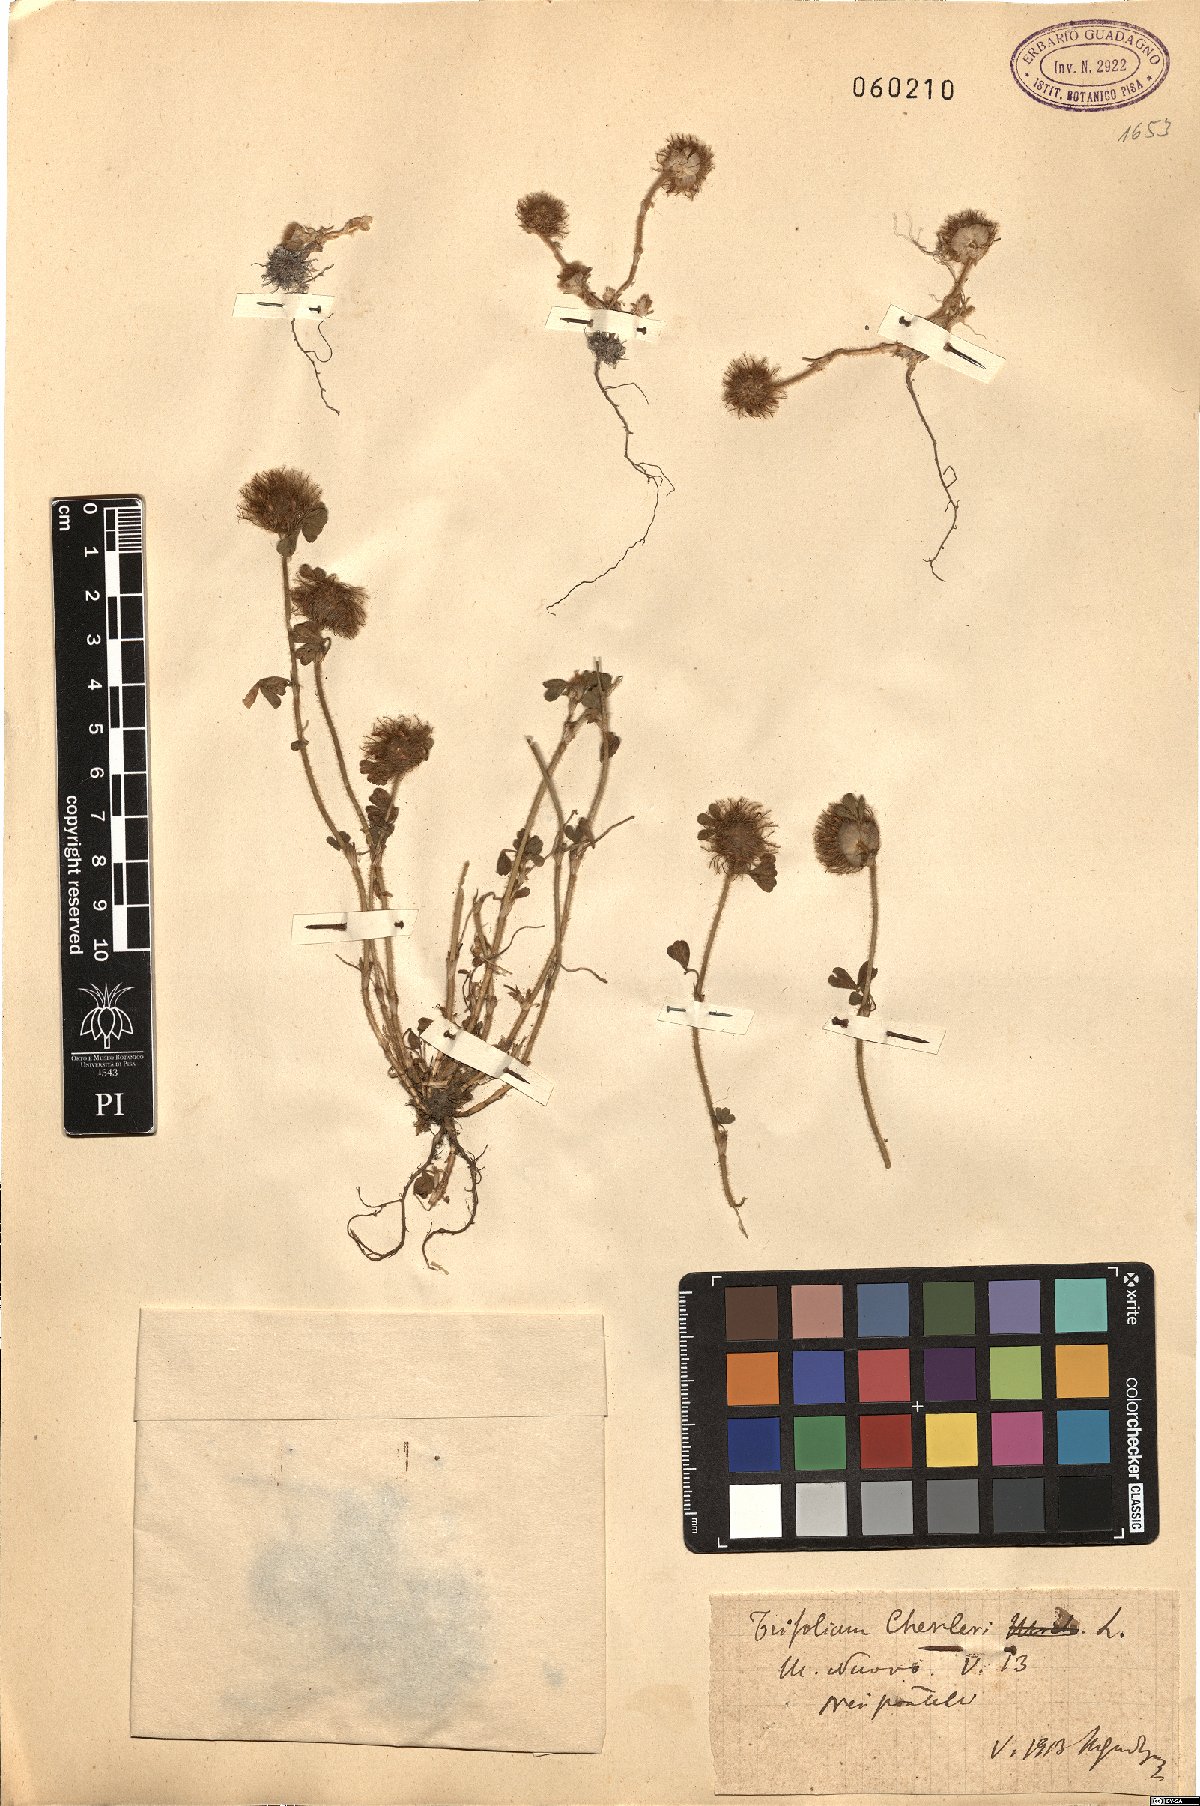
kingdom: Plantae
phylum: Tracheophyta
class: Magnoliopsida
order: Fabales
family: Fabaceae
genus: Trifolium
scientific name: Trifolium cherleri
